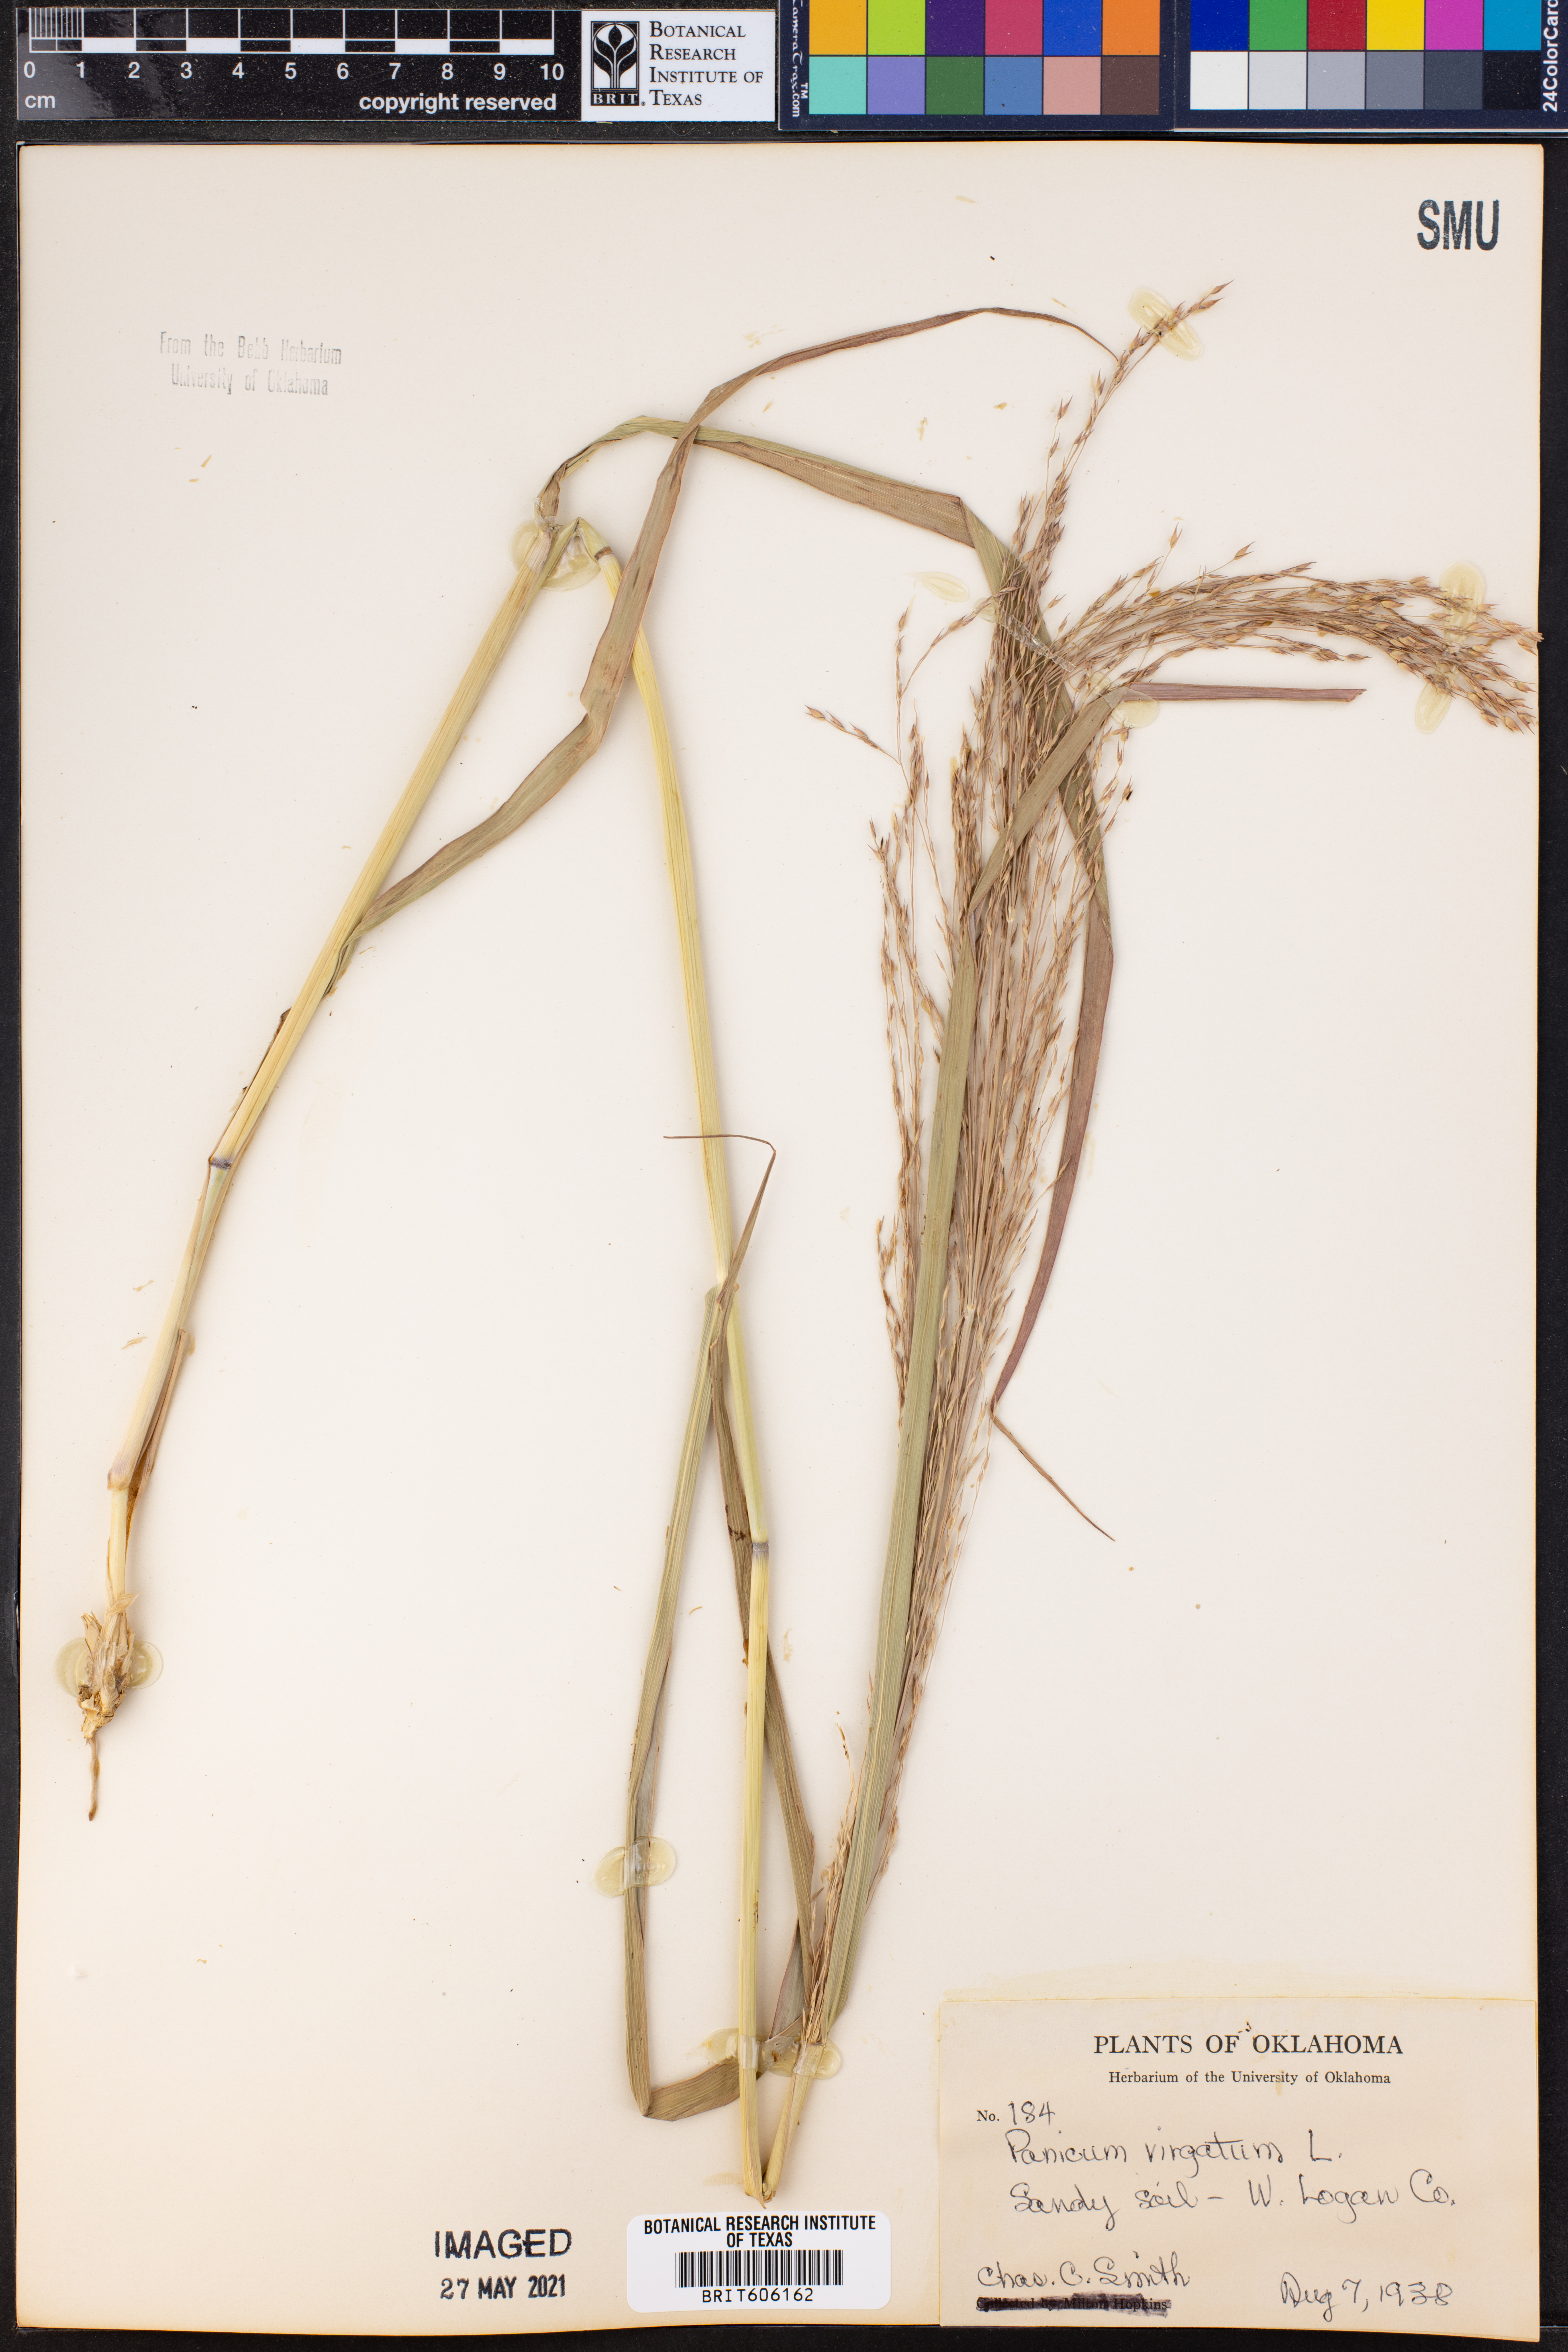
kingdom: Plantae
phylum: Tracheophyta
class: Liliopsida
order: Poales
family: Poaceae
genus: Panicum
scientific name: Panicum virgatum
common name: Switchgrass
